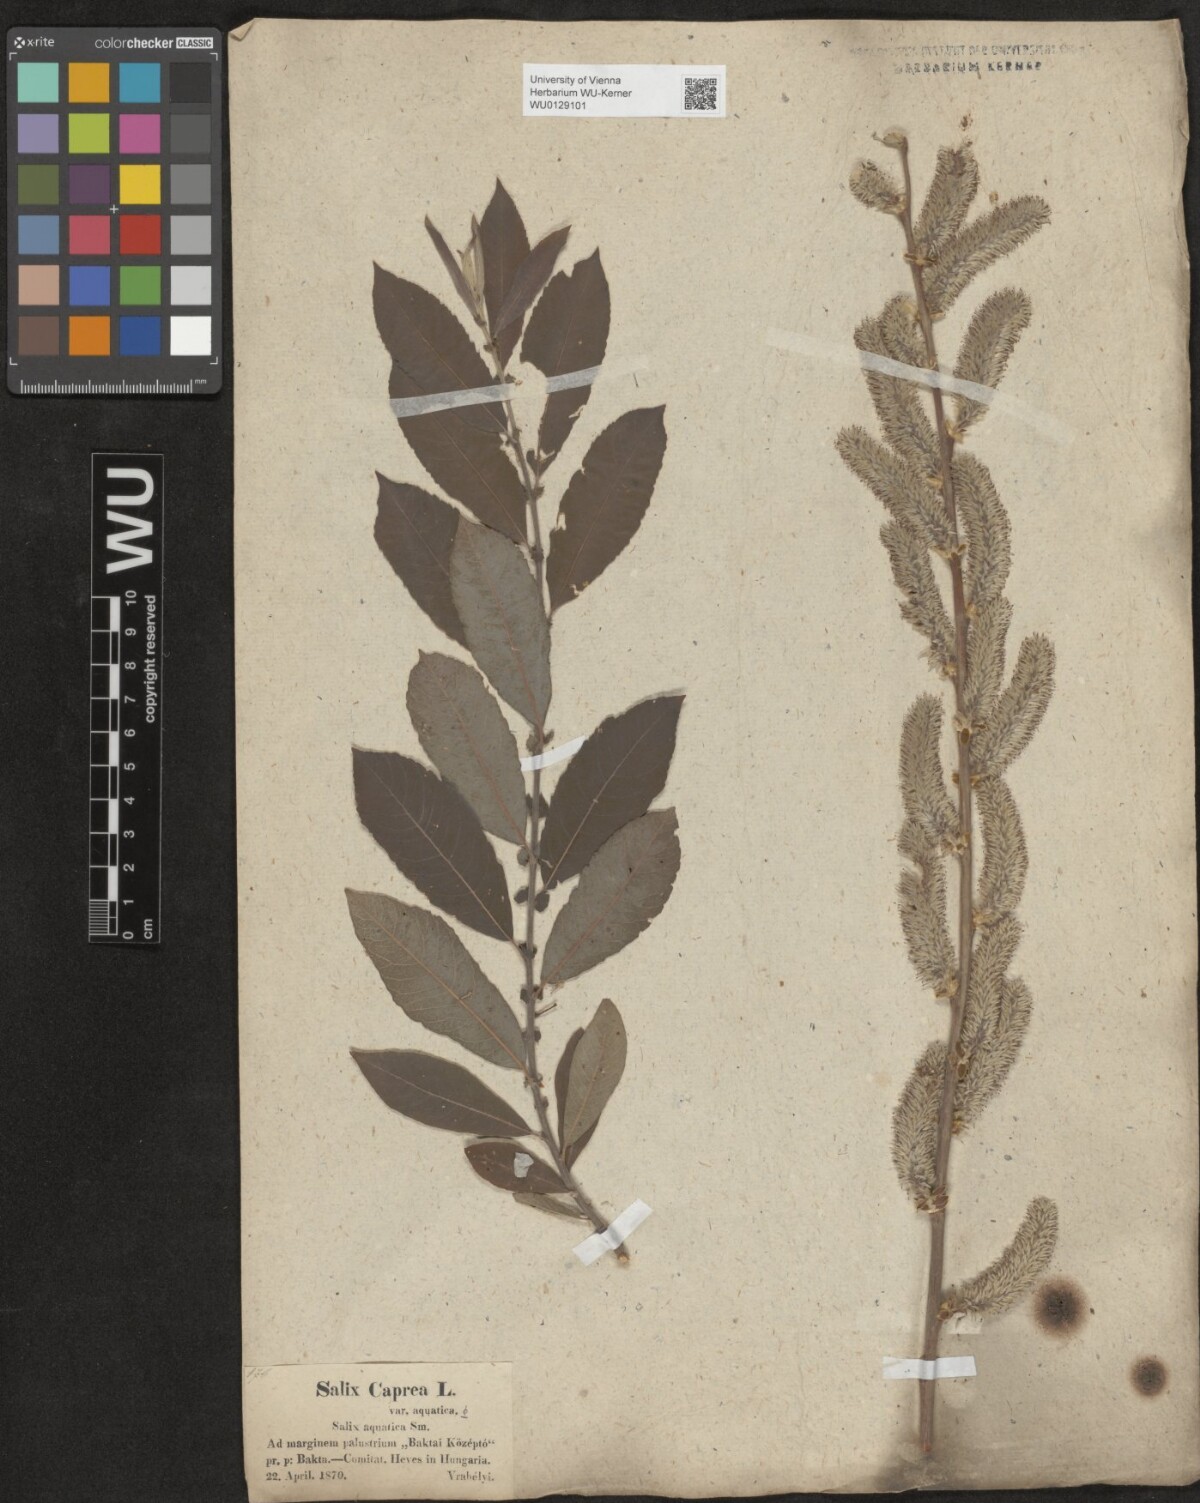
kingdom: Plantae
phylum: Tracheophyta
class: Magnoliopsida
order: Malpighiales
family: Salicaceae
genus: Salix
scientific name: Salix cinerea
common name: Common sallow
